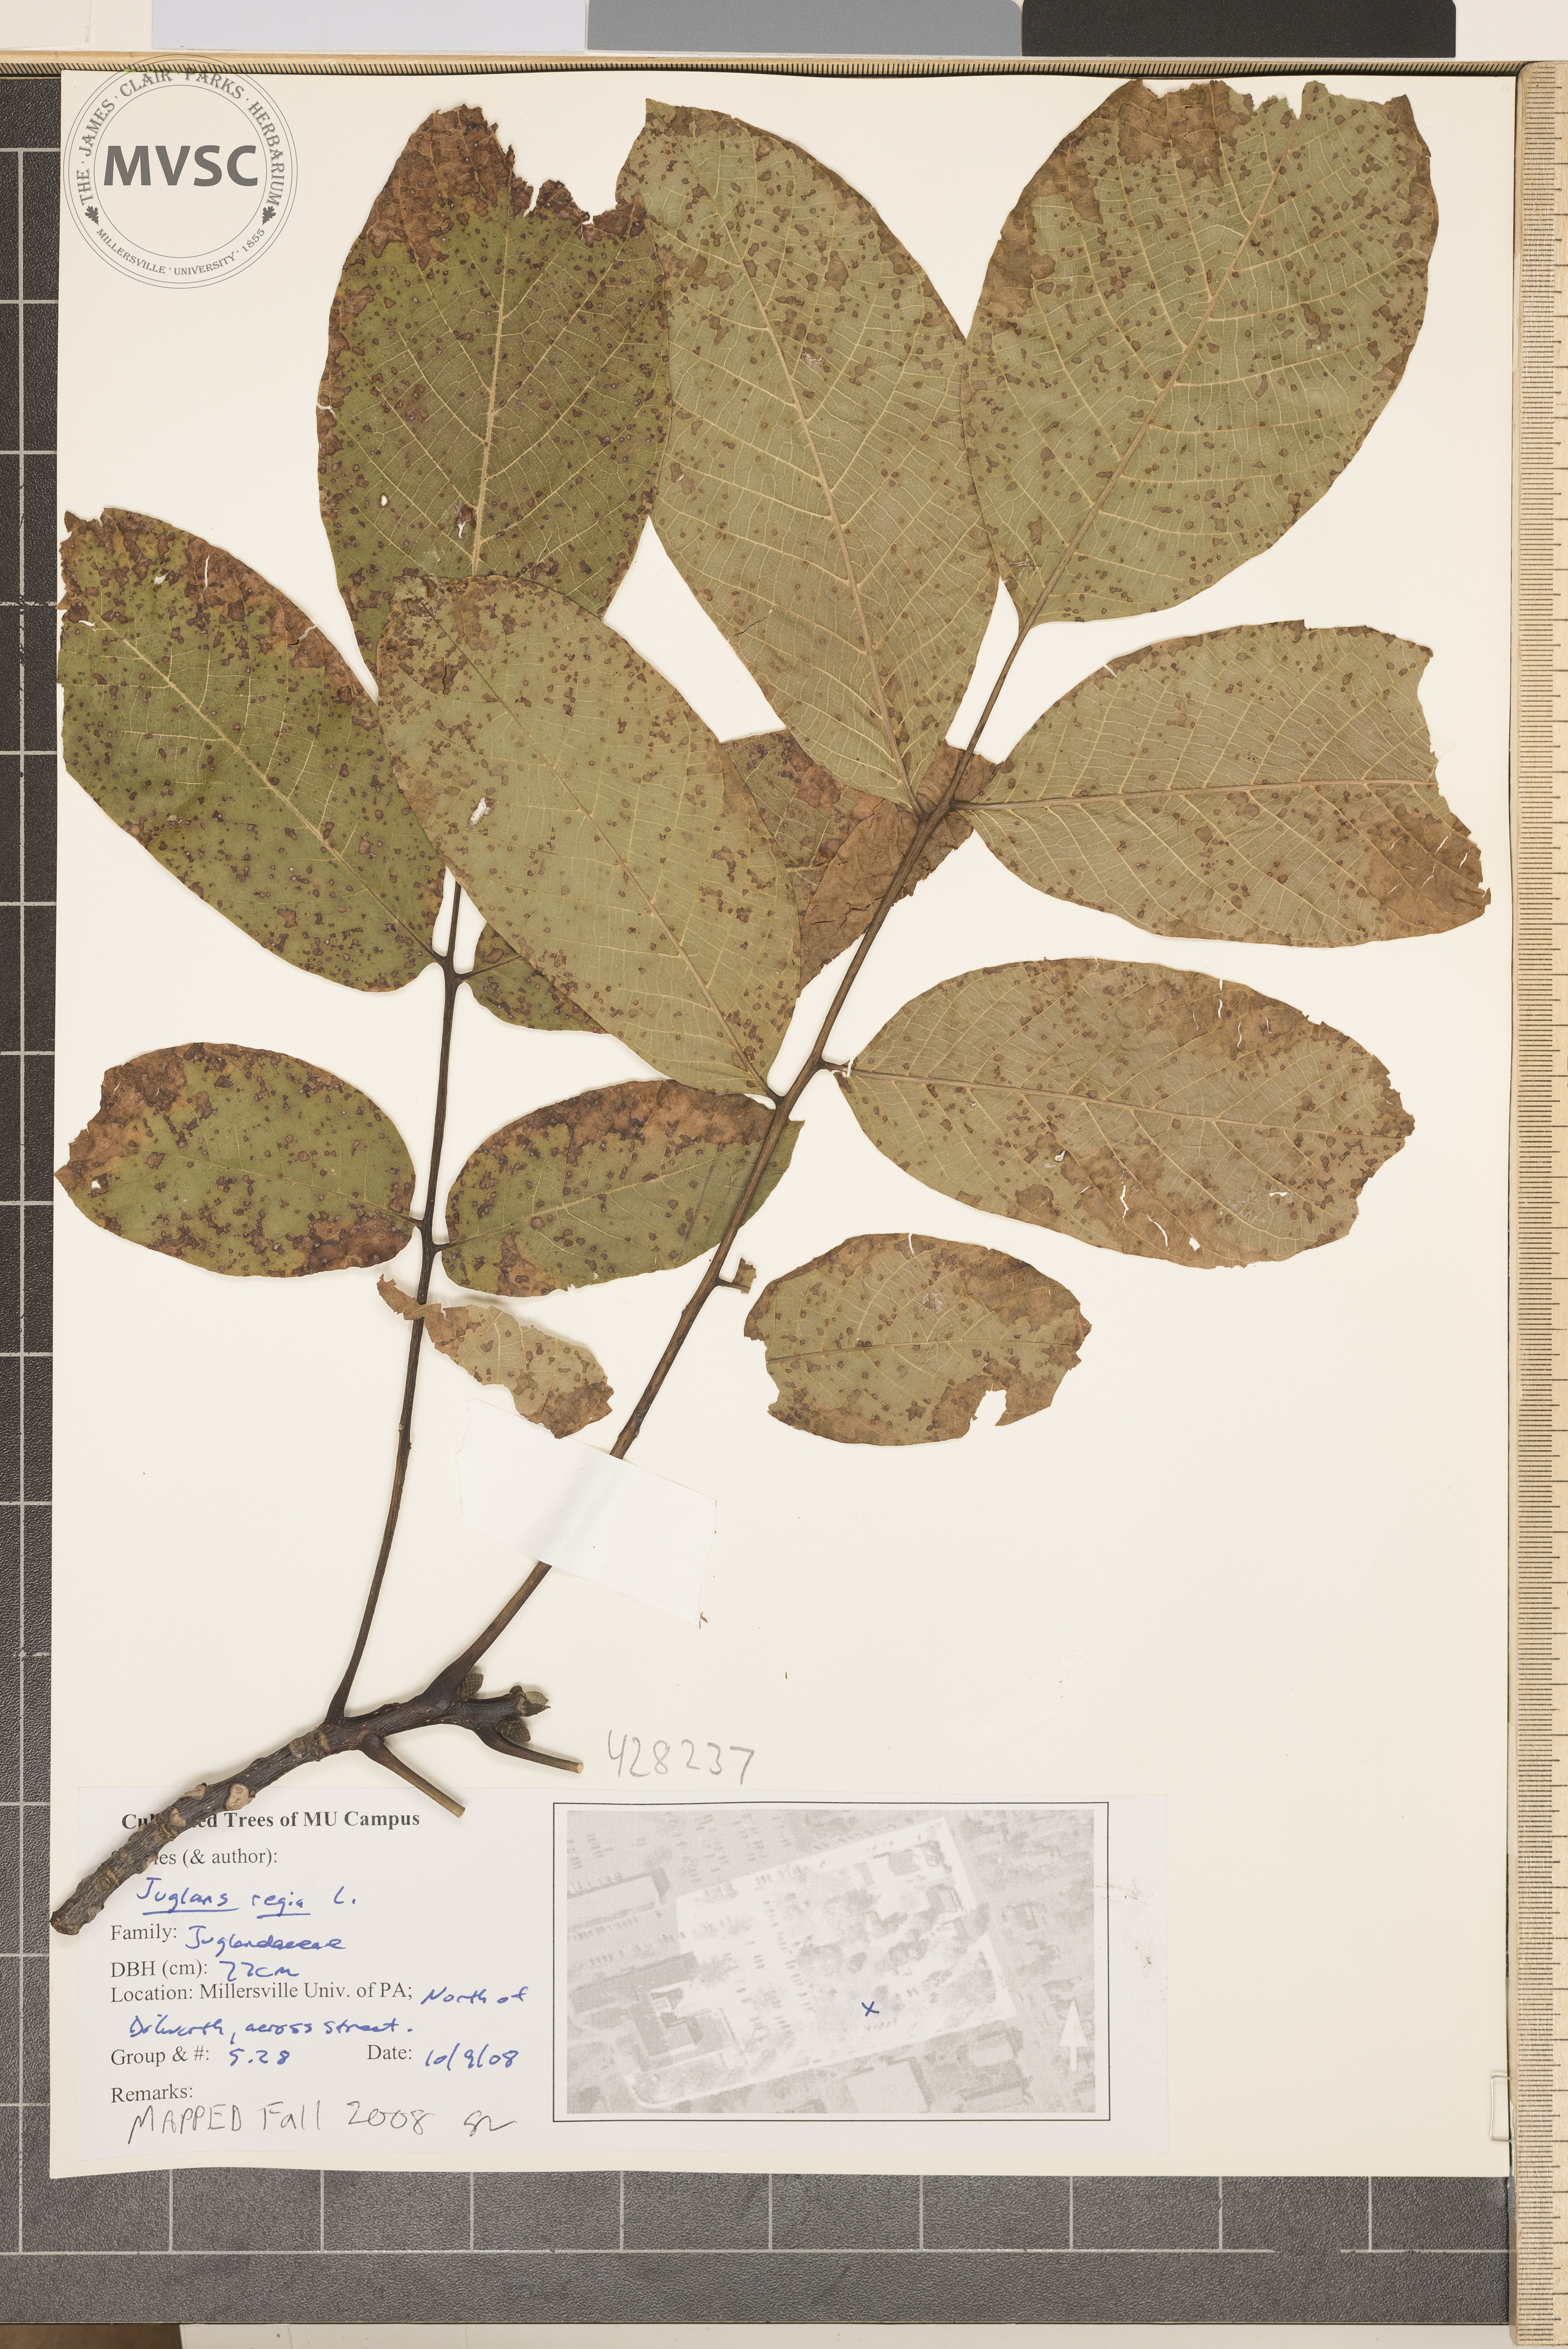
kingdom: Plantae
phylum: Tracheophyta
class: Magnoliopsida
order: Fagales
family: Juglandaceae
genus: Juglans
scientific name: Juglans regia
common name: Persian Walnut
